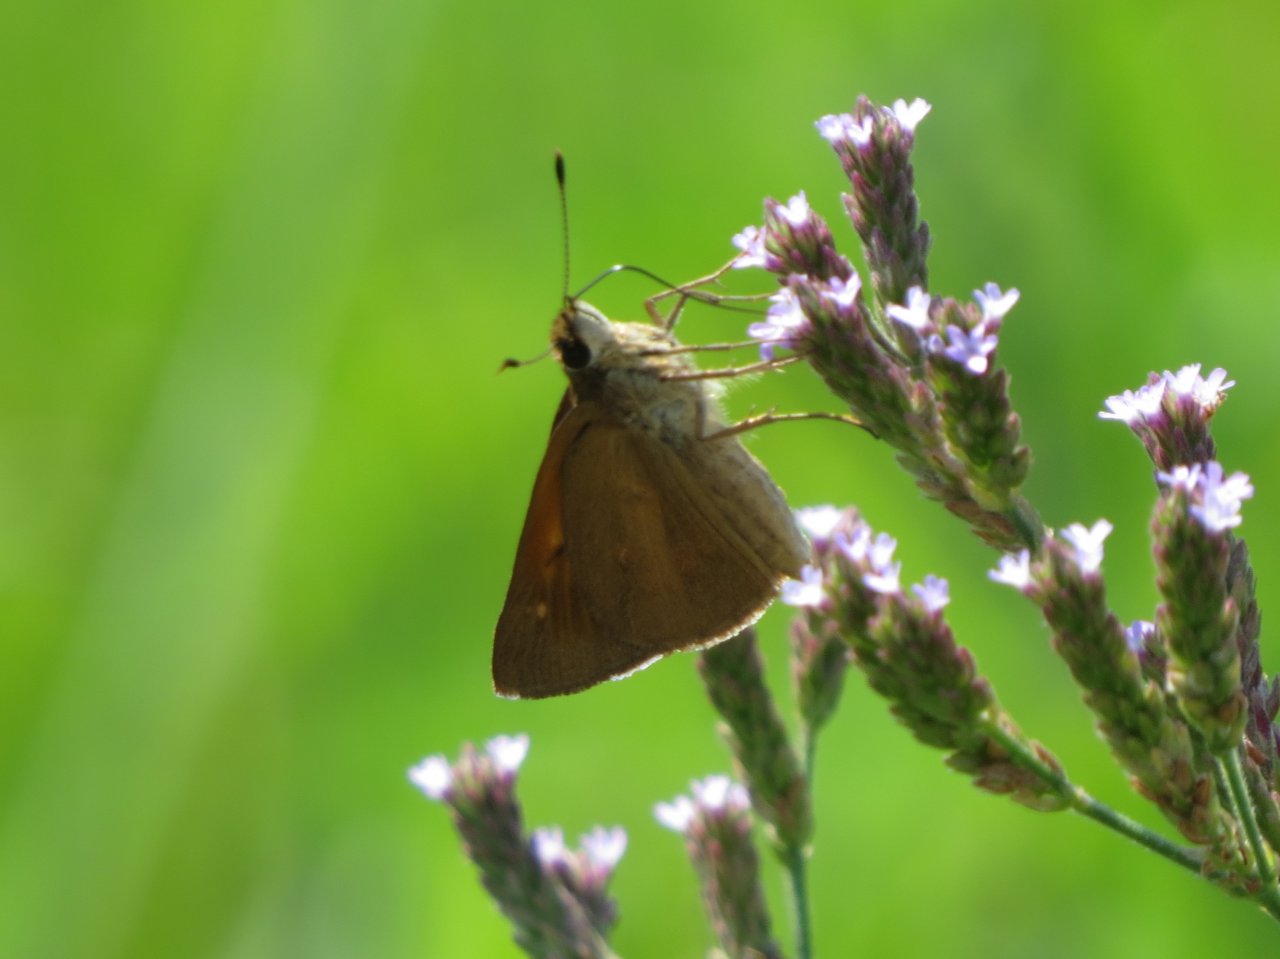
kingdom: Animalia
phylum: Arthropoda
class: Insecta
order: Lepidoptera
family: Hesperiidae
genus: Euphyes
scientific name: Euphyes dion
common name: Dion Skipper
